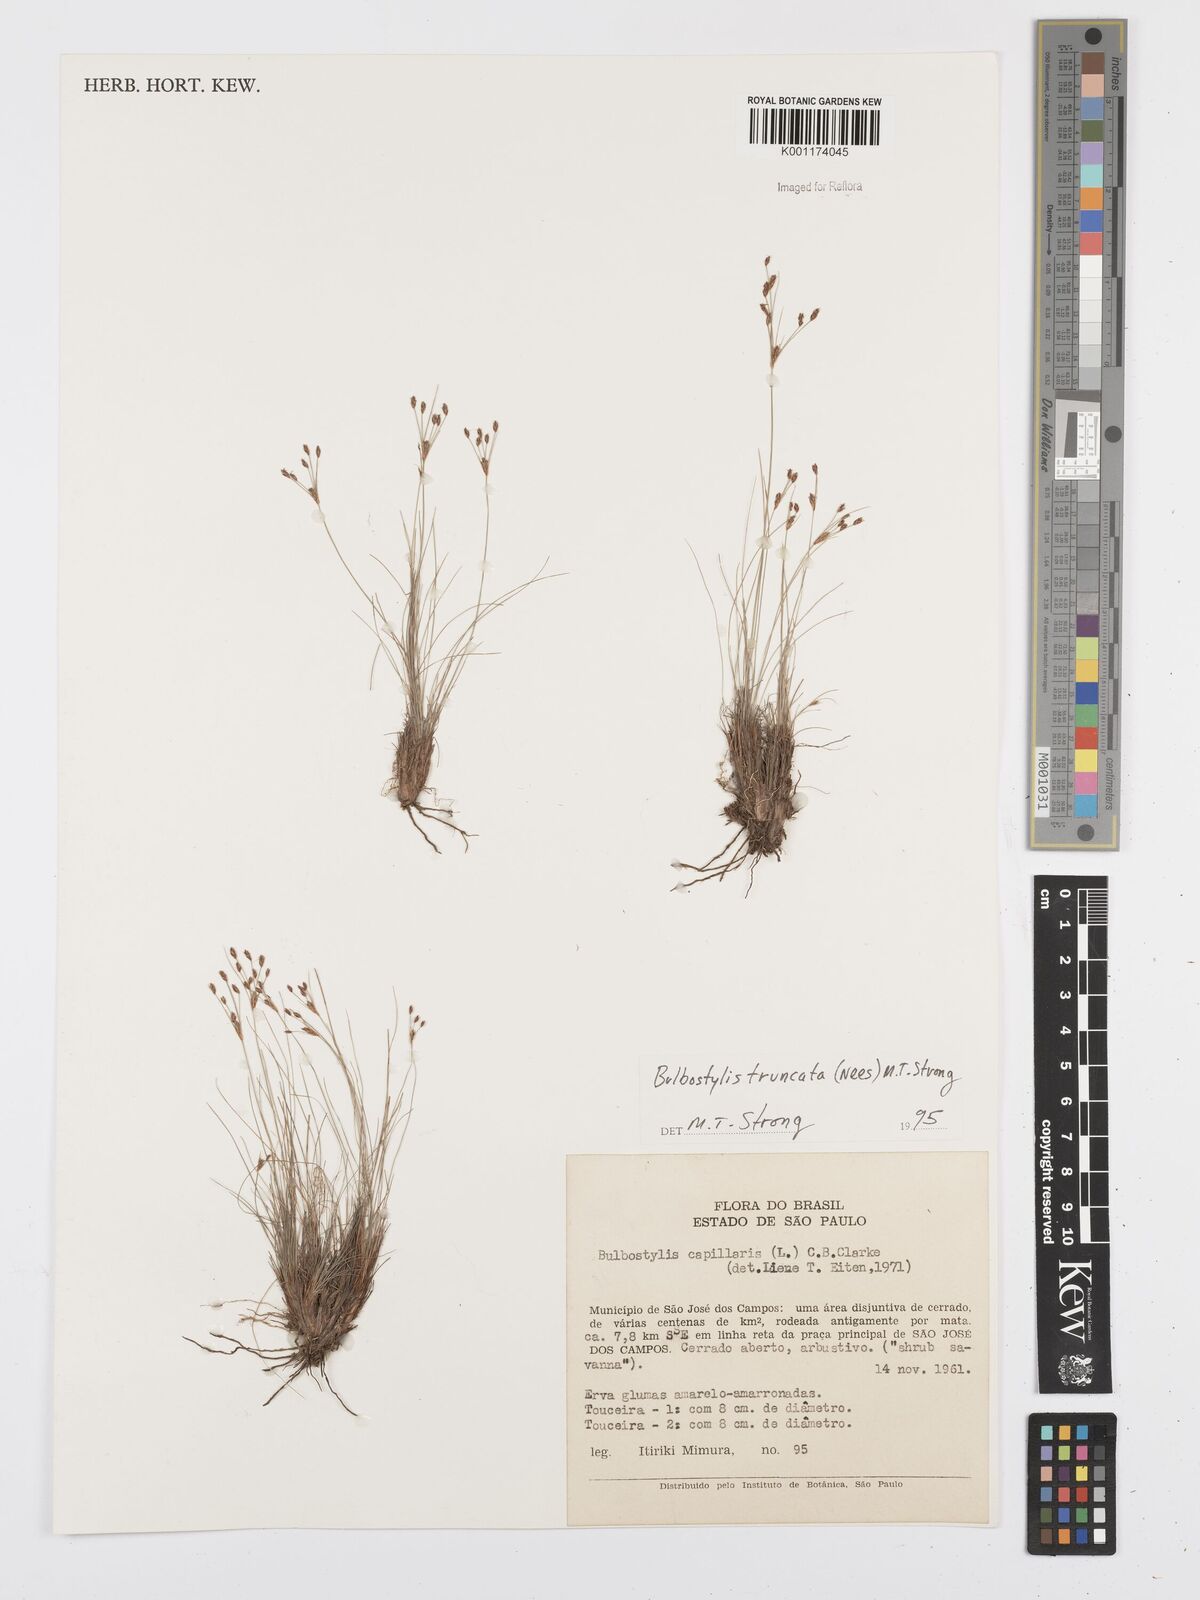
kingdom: Plantae
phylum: Tracheophyta
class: Liliopsida
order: Poales
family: Cyperaceae
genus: Bulbostylis
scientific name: Bulbostylis truncata
